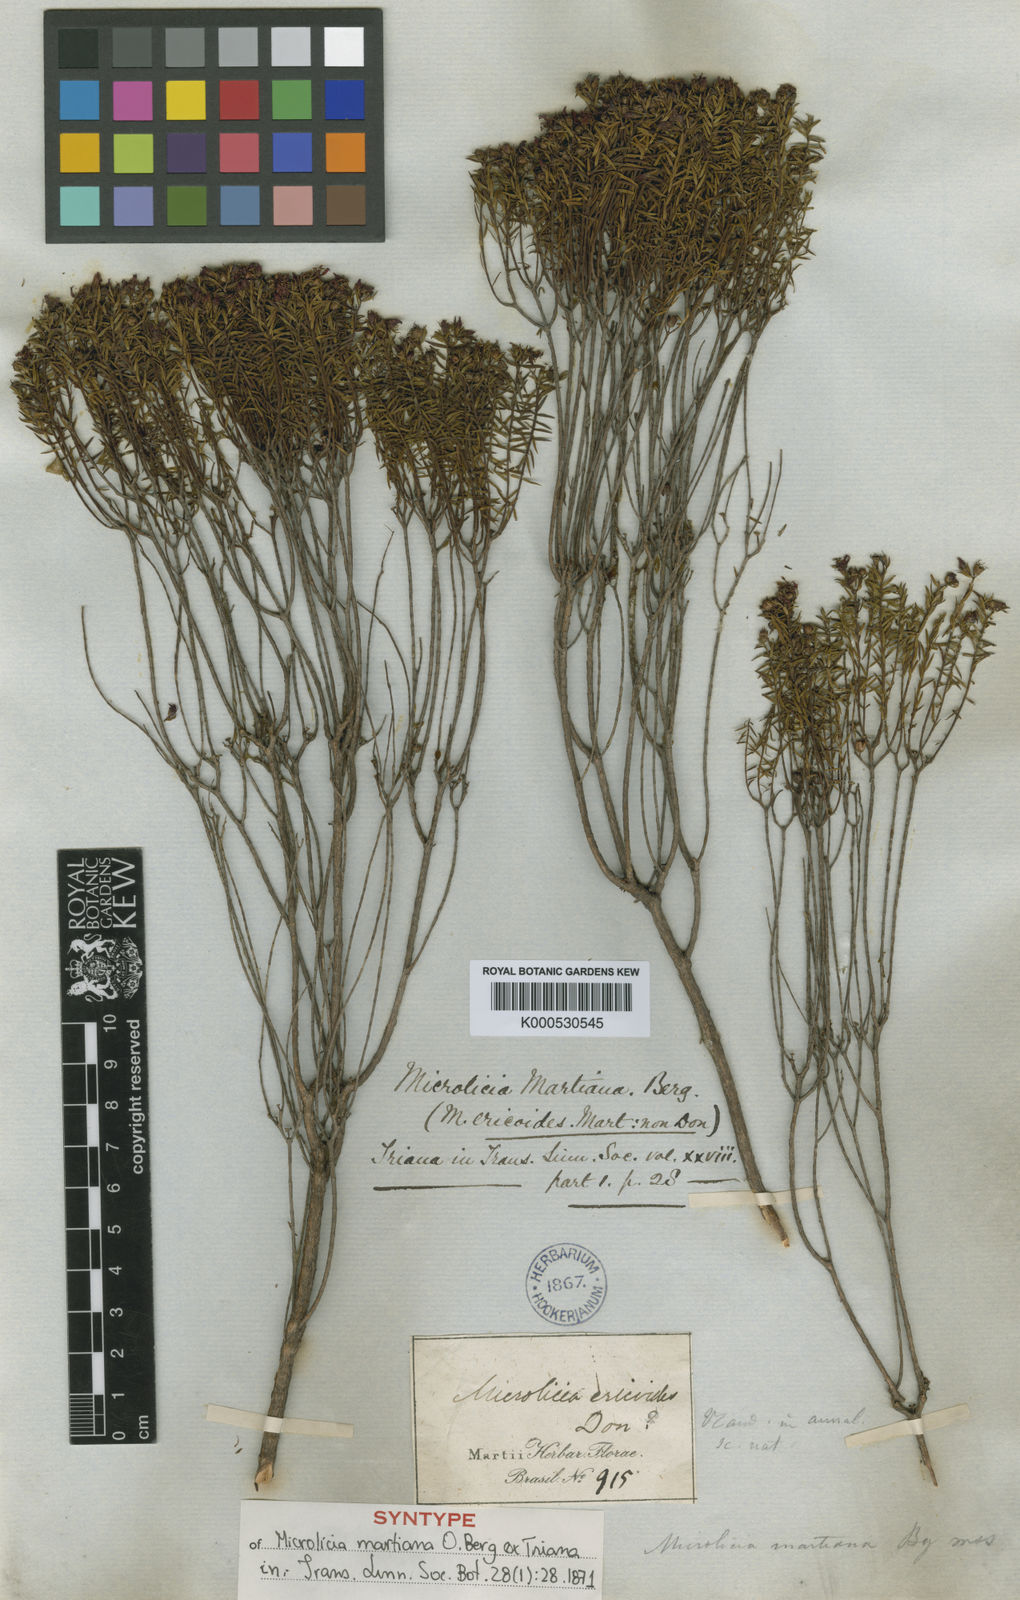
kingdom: Plantae
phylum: Tracheophyta
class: Magnoliopsida
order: Myrtales
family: Melastomataceae
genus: Microlicia
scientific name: Microlicia martiana
